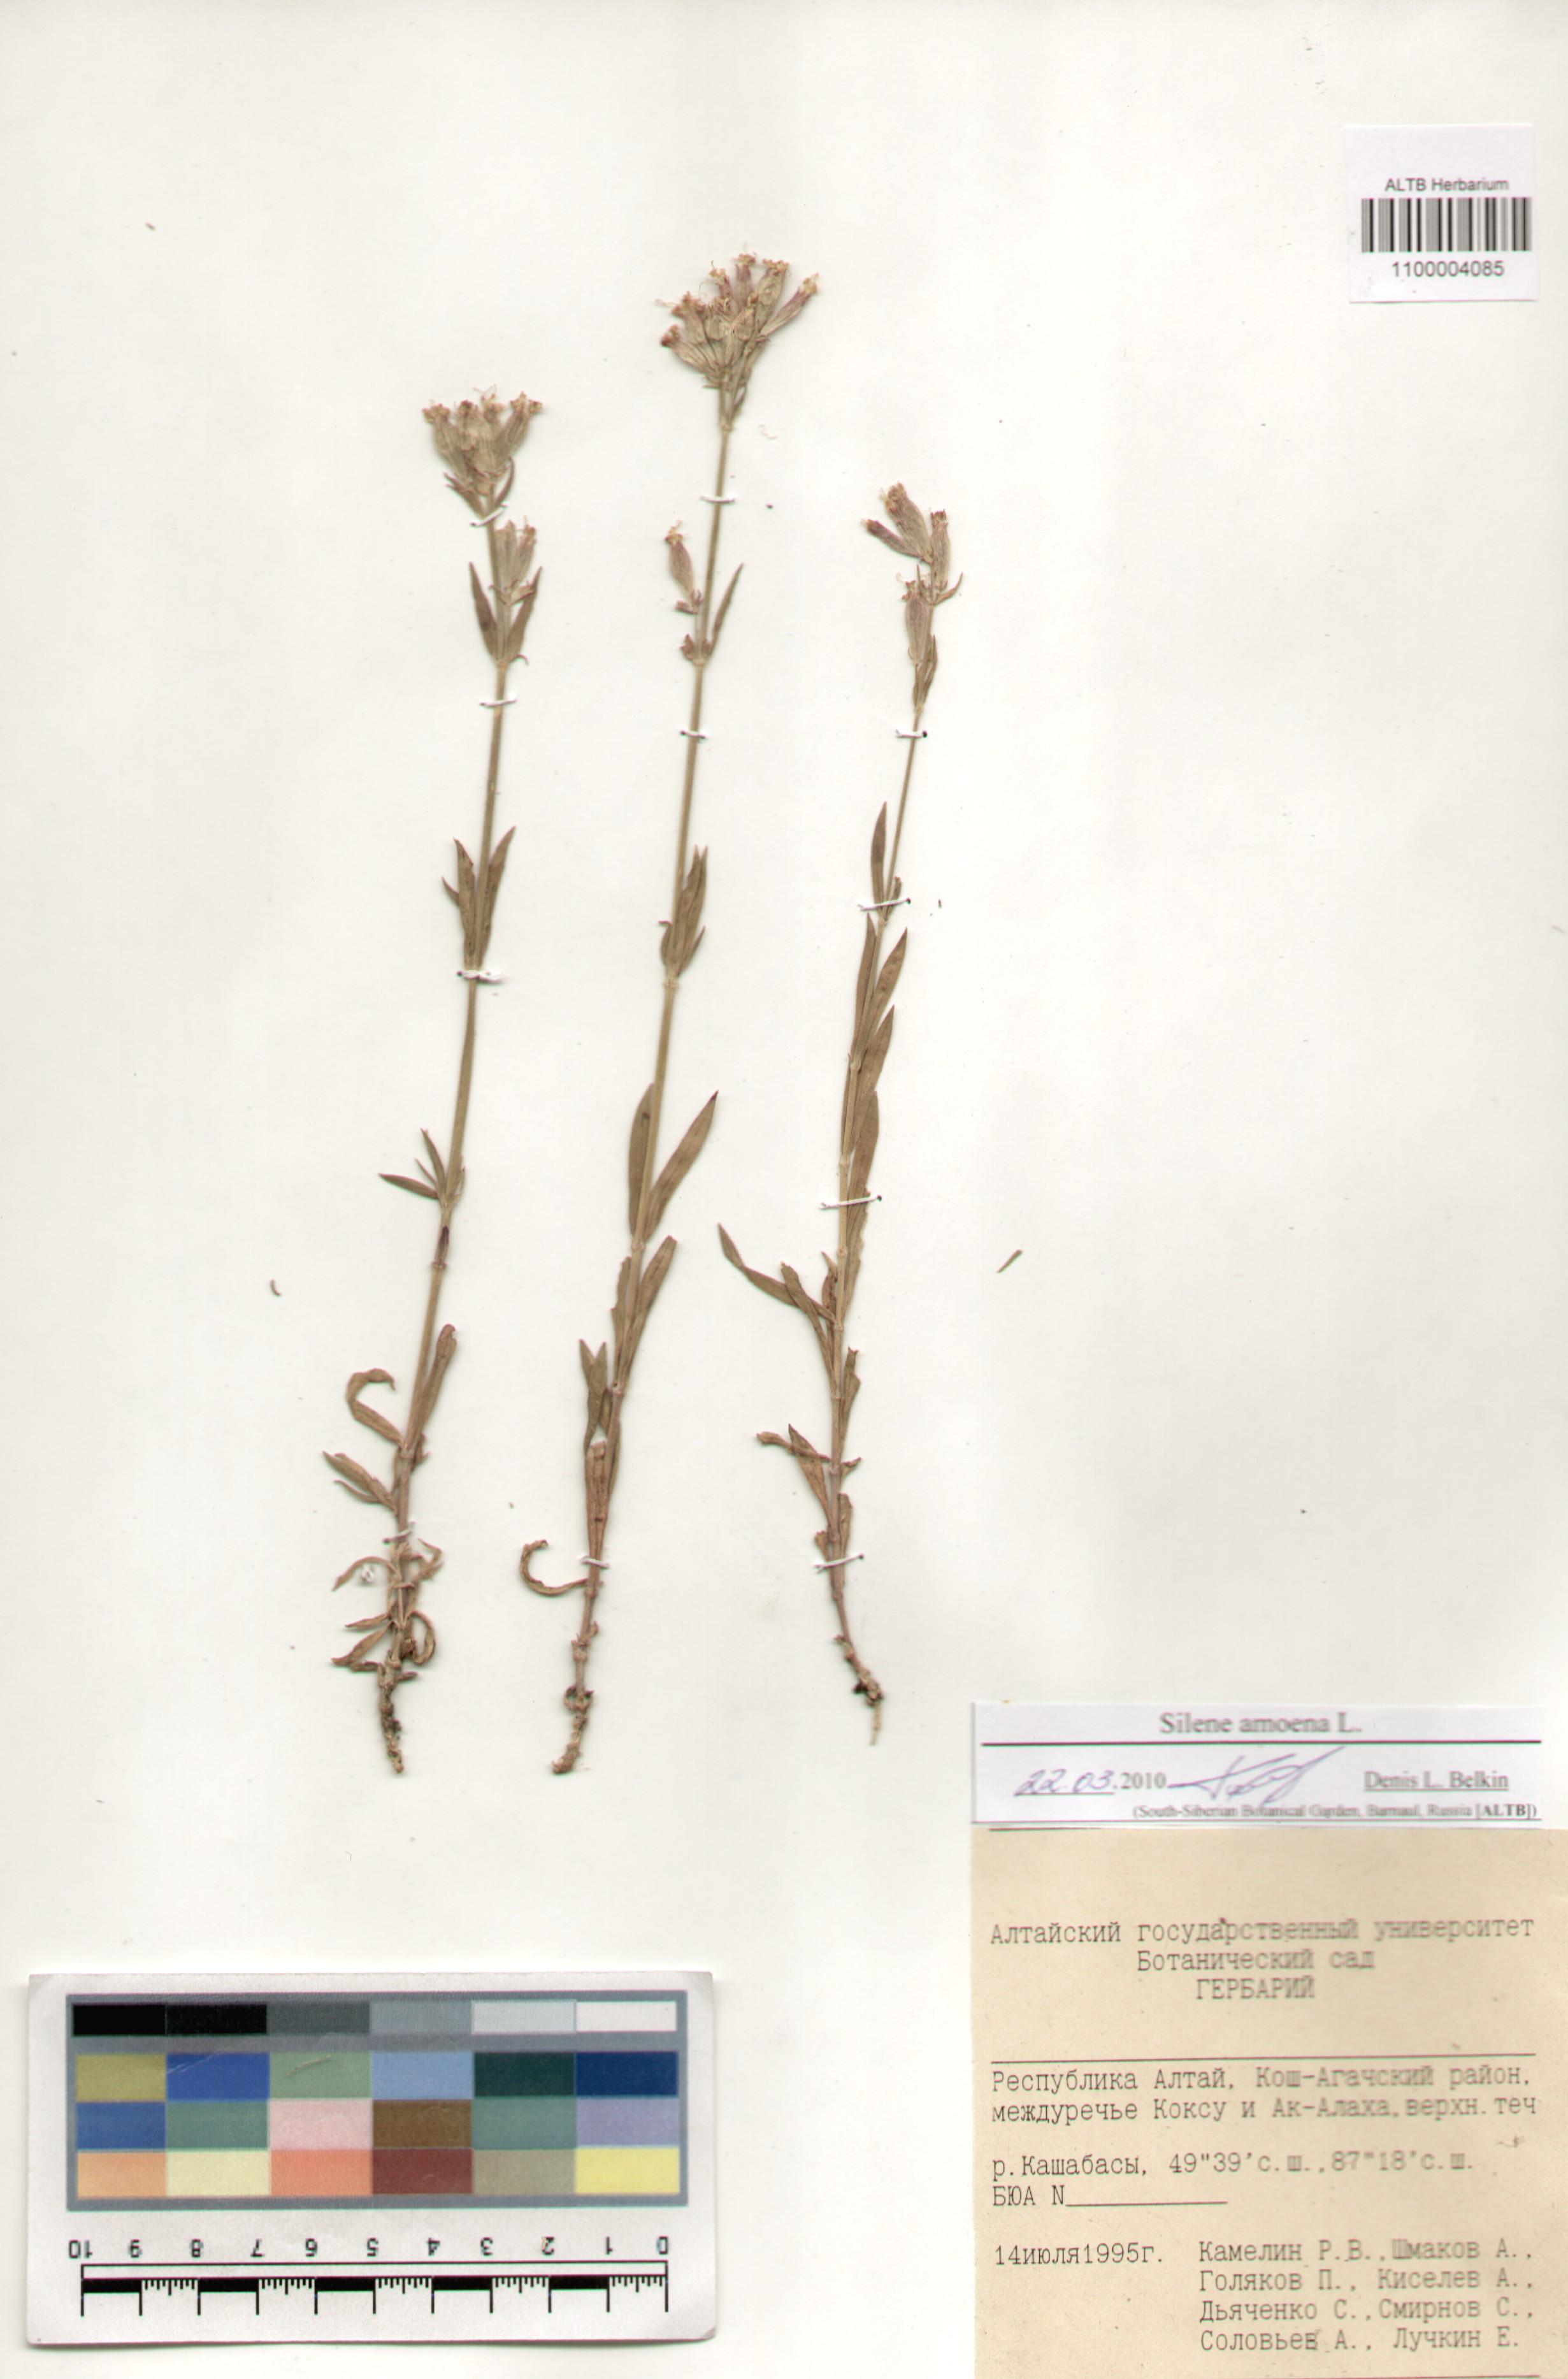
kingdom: Plantae
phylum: Tracheophyta
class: Magnoliopsida
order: Caryophyllales
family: Caryophyllaceae
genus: Silene
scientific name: Silene amoena
